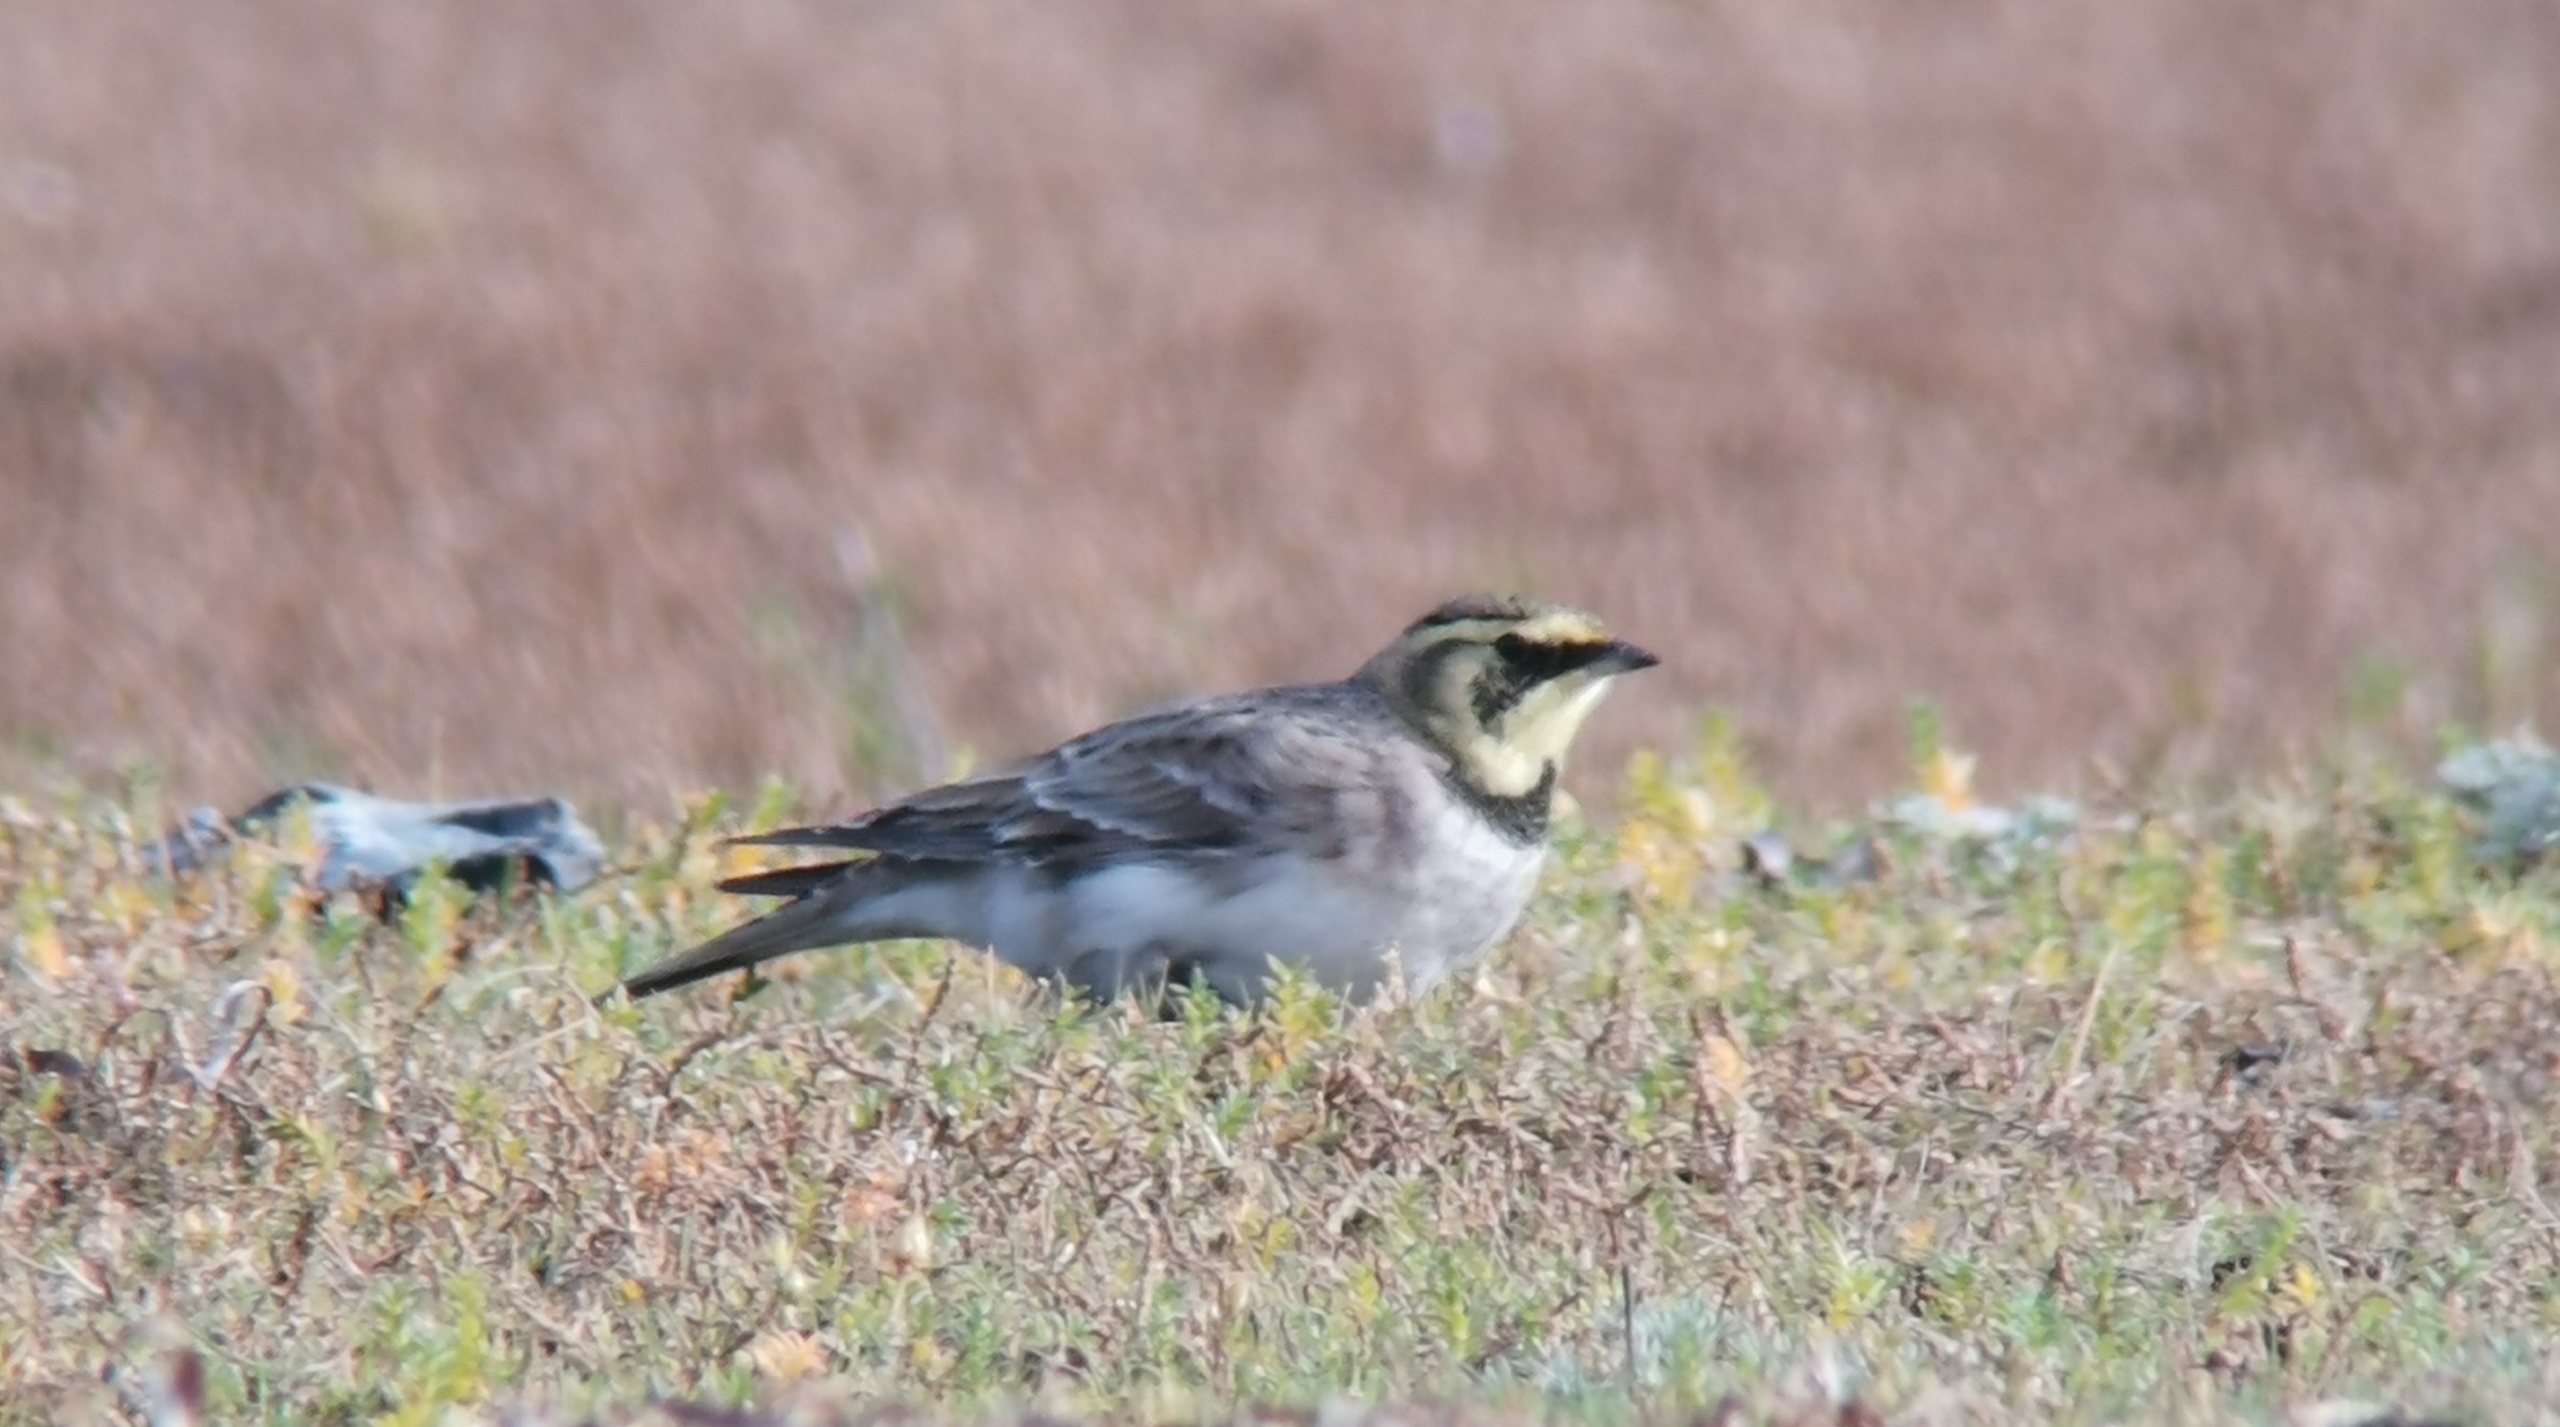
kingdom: Animalia
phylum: Chordata
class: Aves
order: Passeriformes
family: Alaudidae
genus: Eremophila
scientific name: Eremophila alpestris
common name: Bjerglærke
